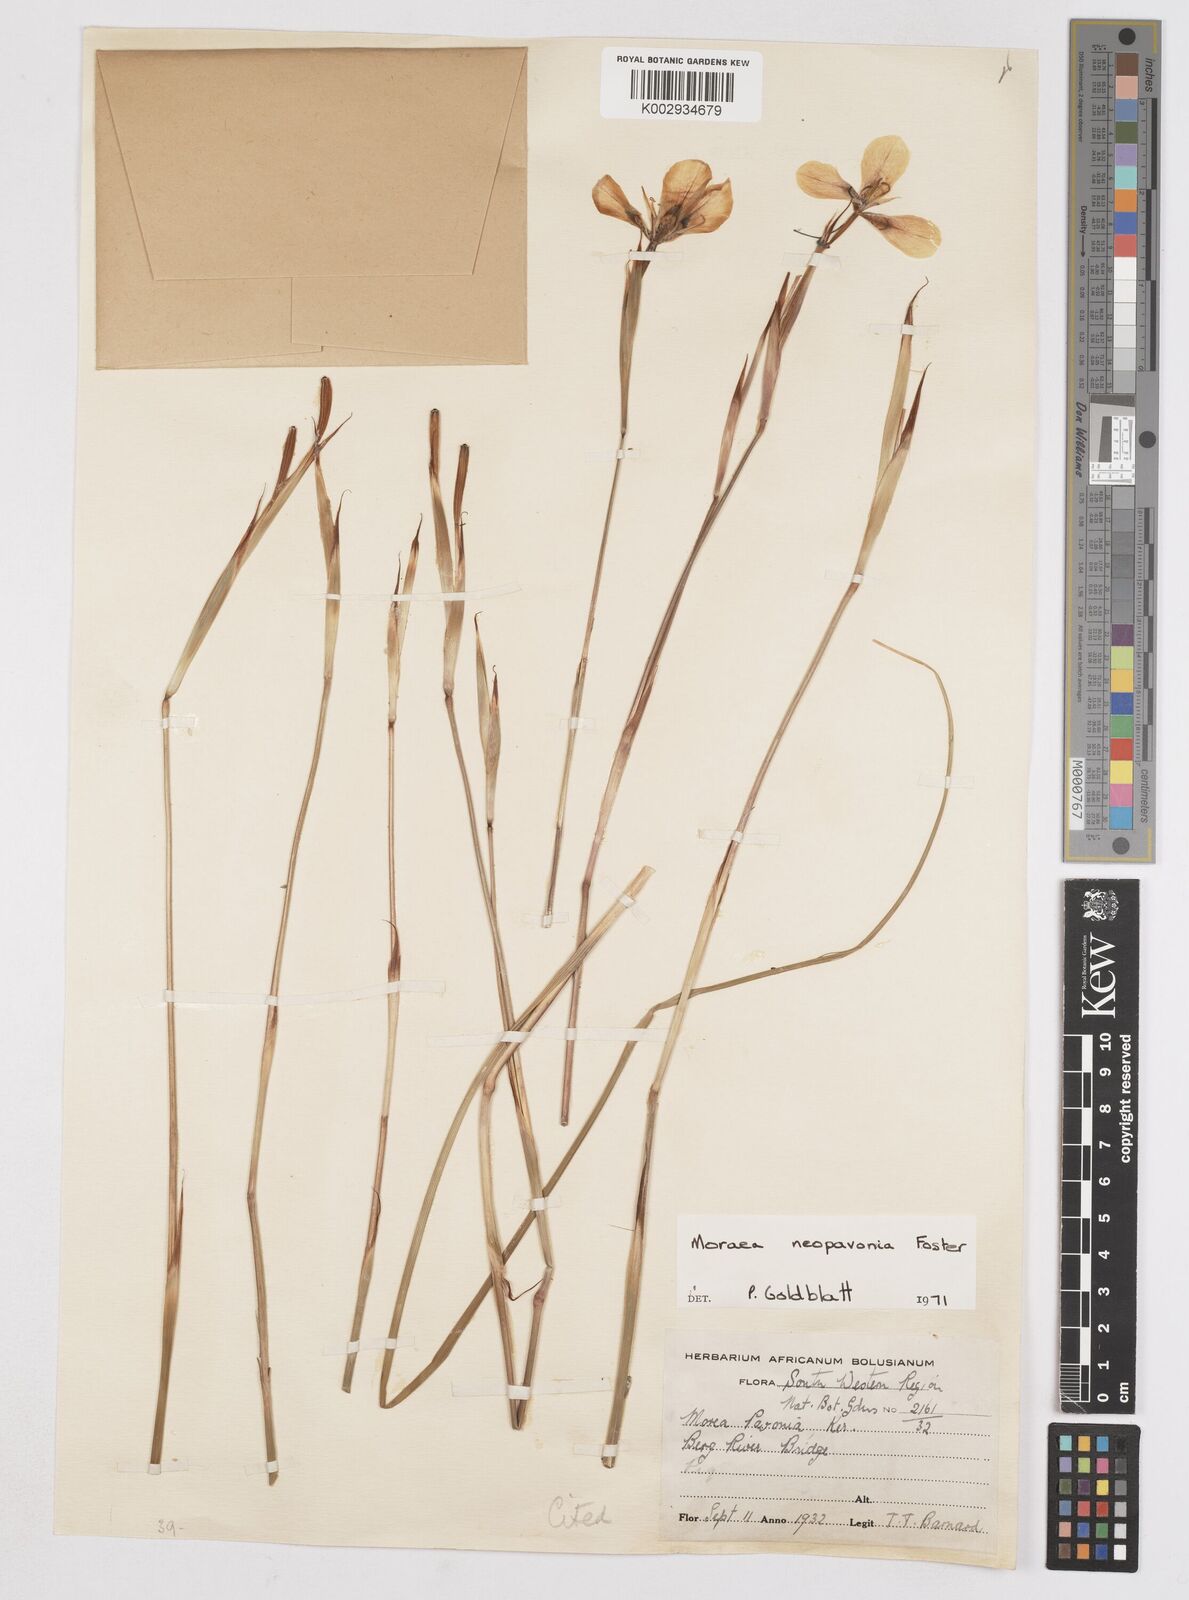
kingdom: Plantae
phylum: Tracheophyta
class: Liliopsida
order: Asparagales
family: Iridaceae
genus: Moraea
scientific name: Moraea tulbaghensis
